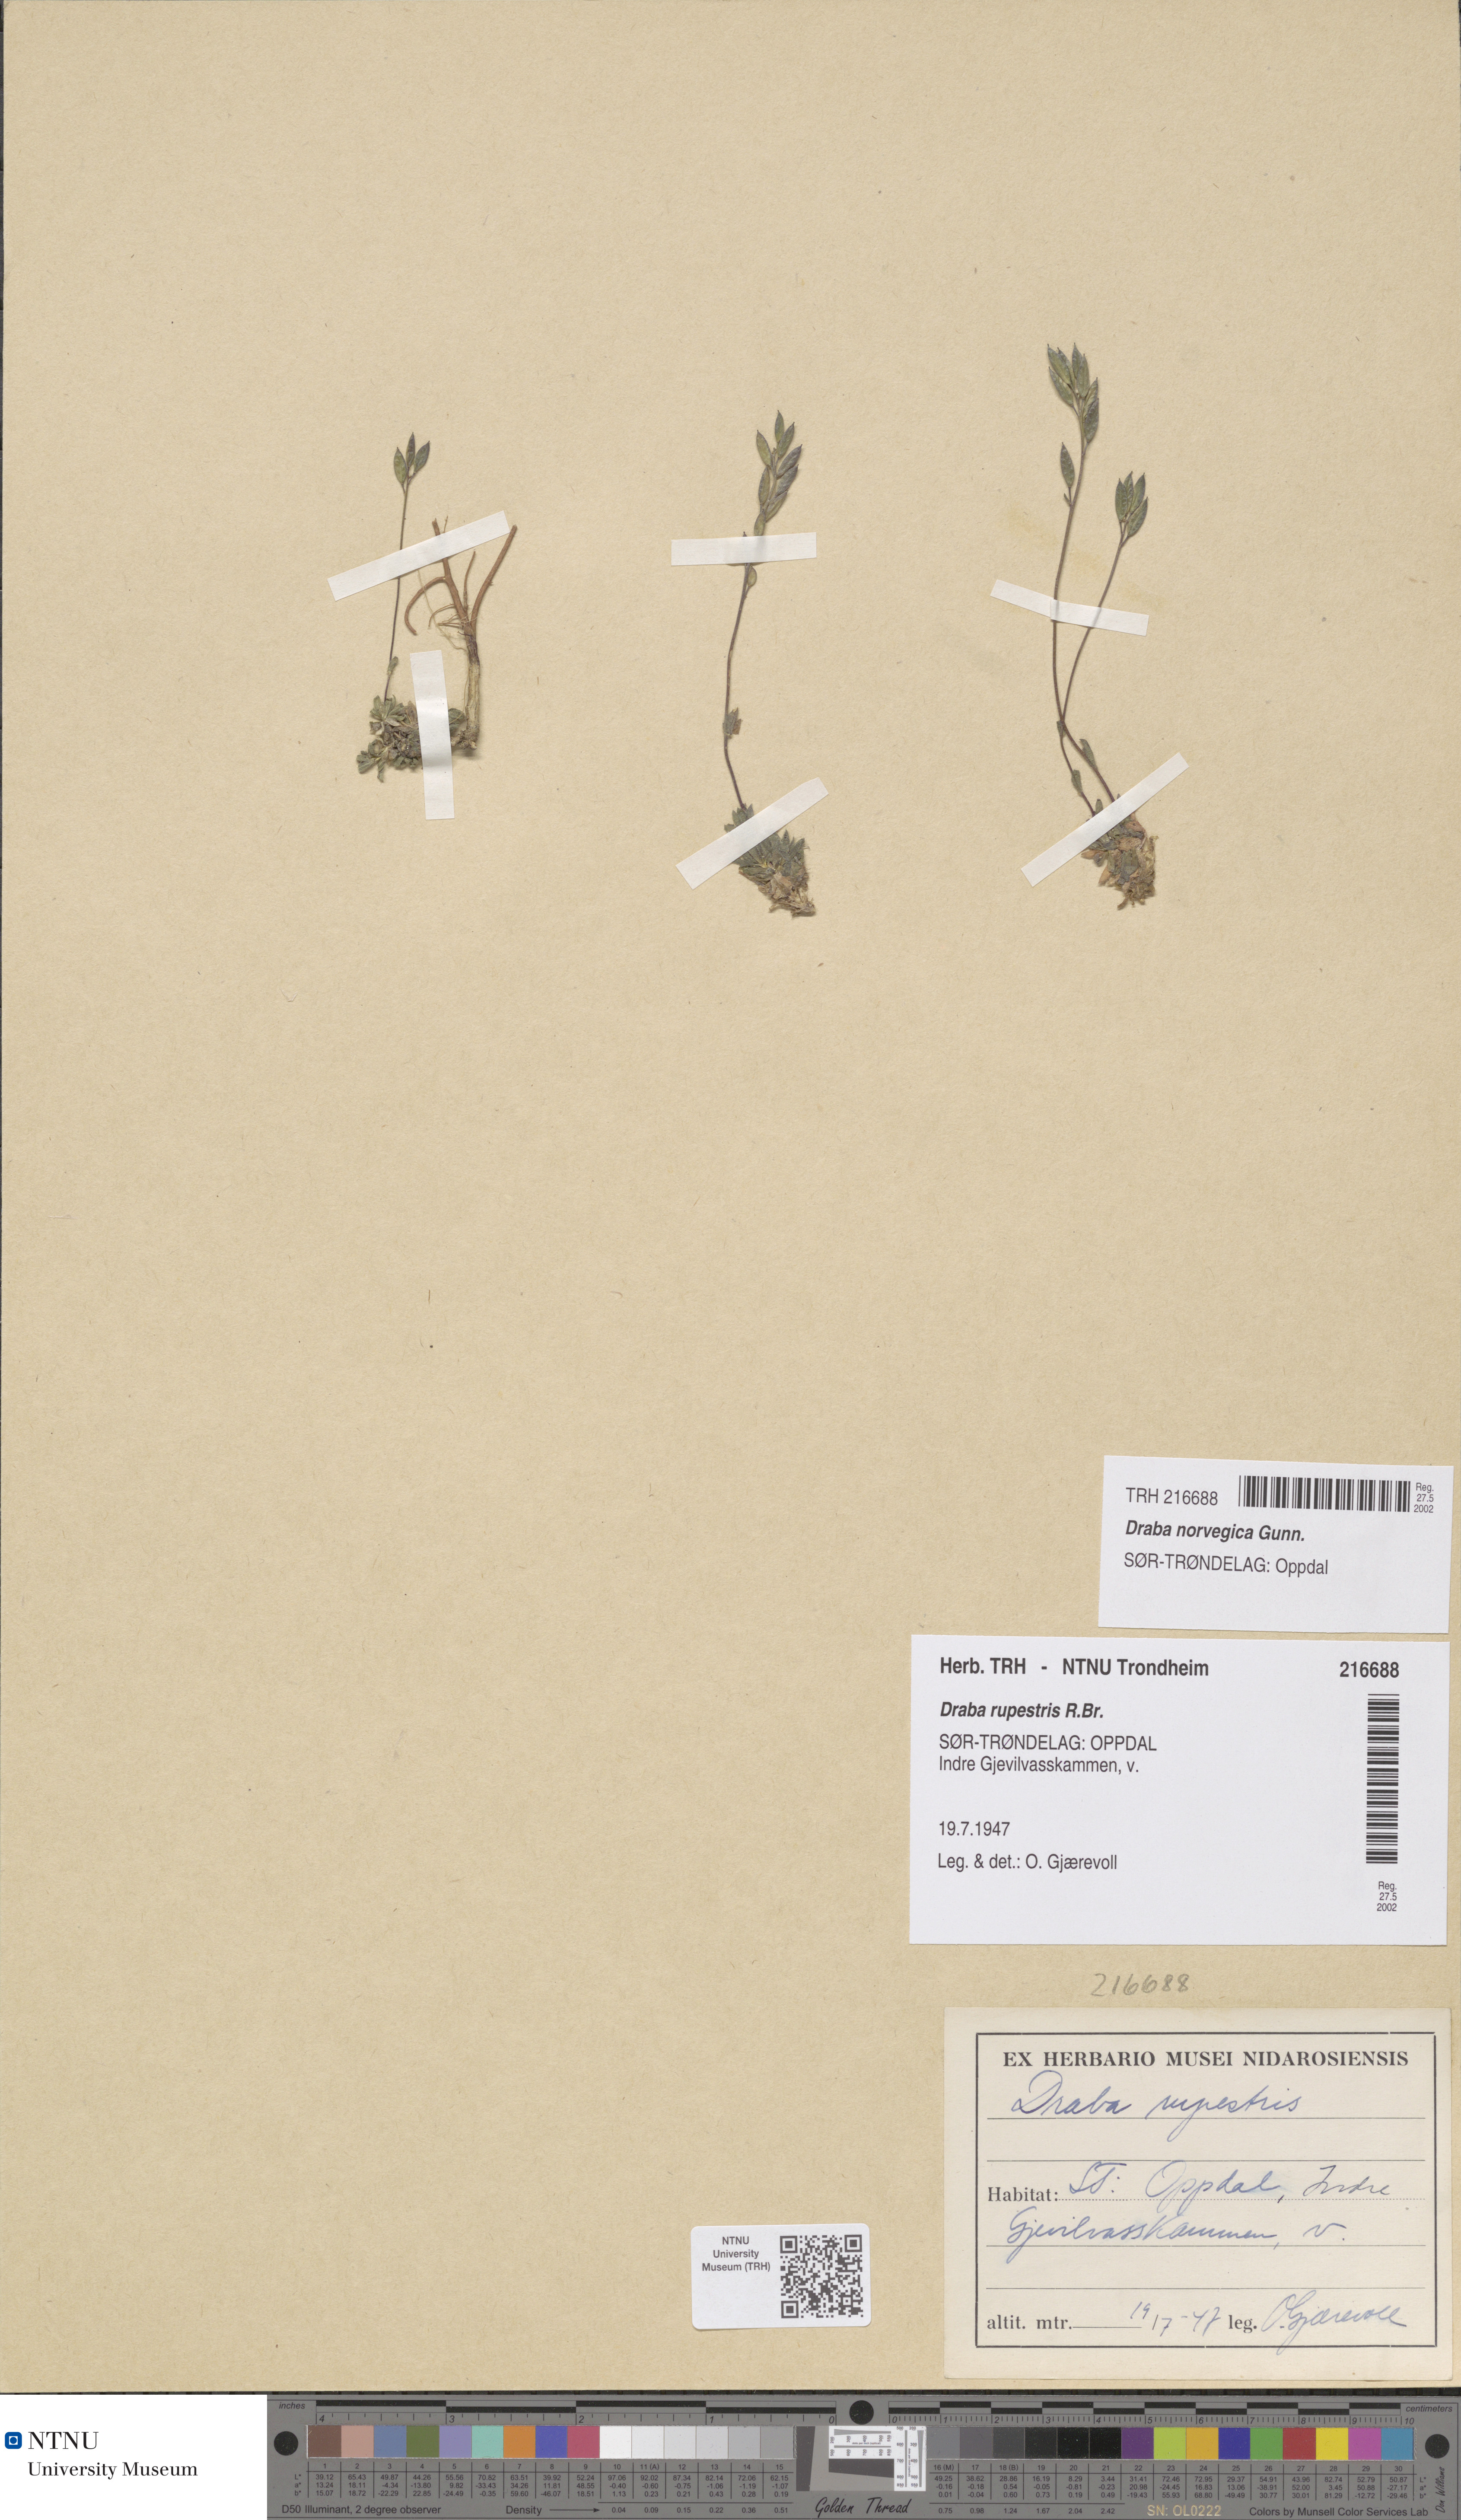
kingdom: Plantae
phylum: Tracheophyta
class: Magnoliopsida
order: Brassicales
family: Brassicaceae
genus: Draba
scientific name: Draba norvegica
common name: Rock whitlowgrass
